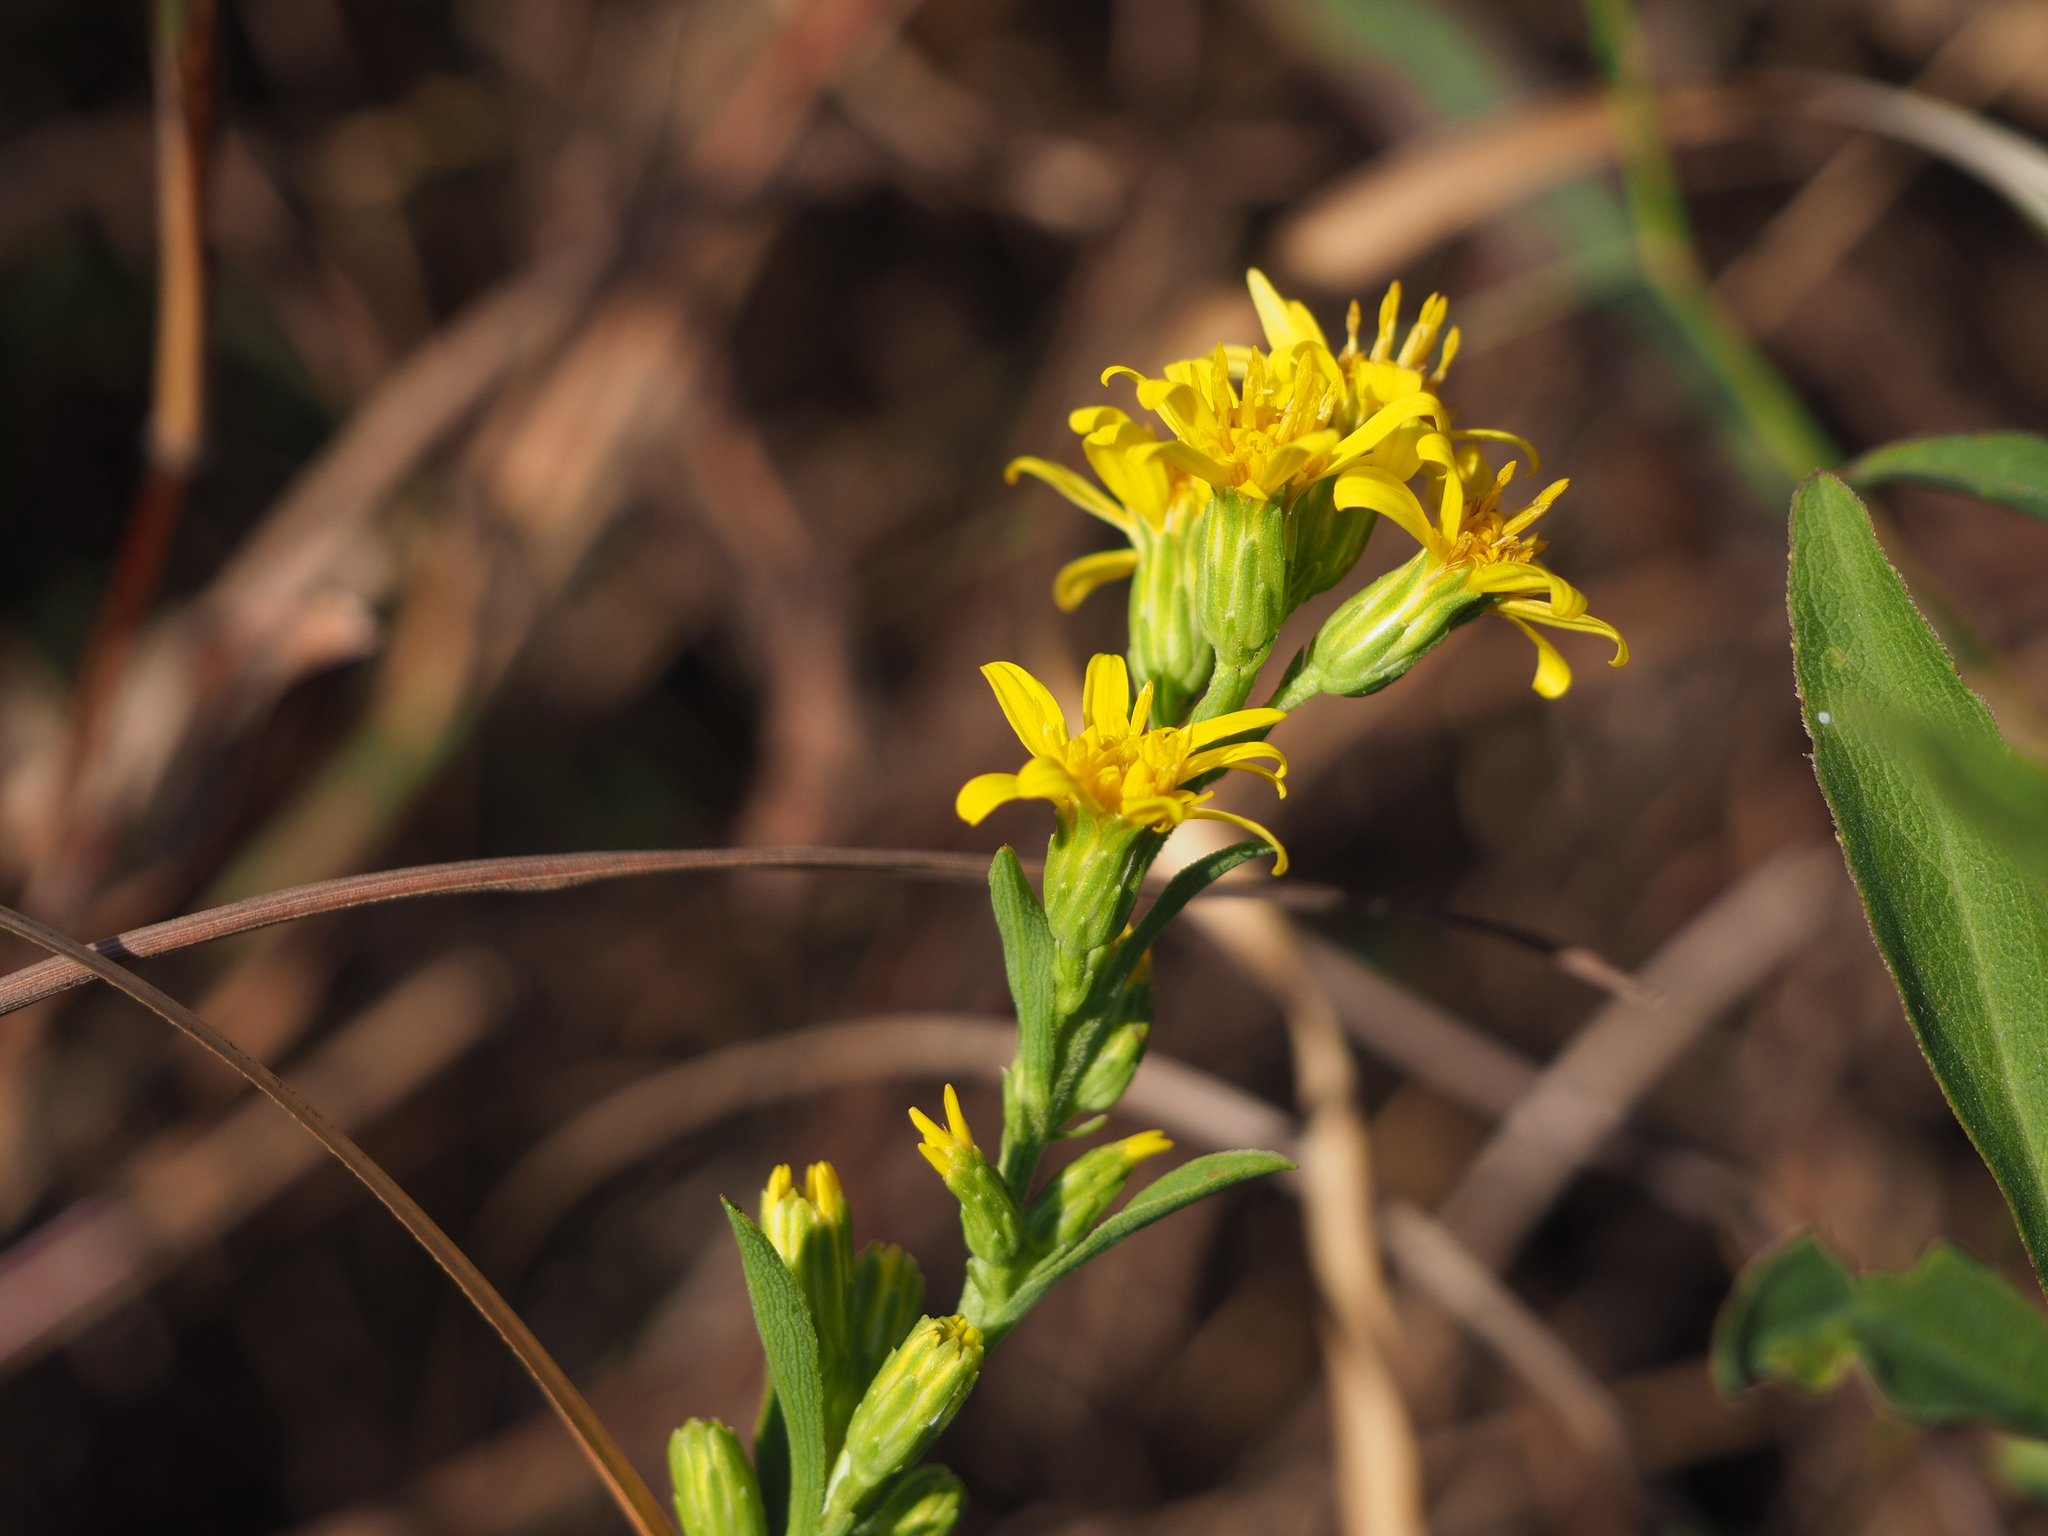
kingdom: Plantae
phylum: Tracheophyta
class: Magnoliopsida
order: Asterales
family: Asteraceae
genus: Solidago
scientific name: Solidago decurrens
